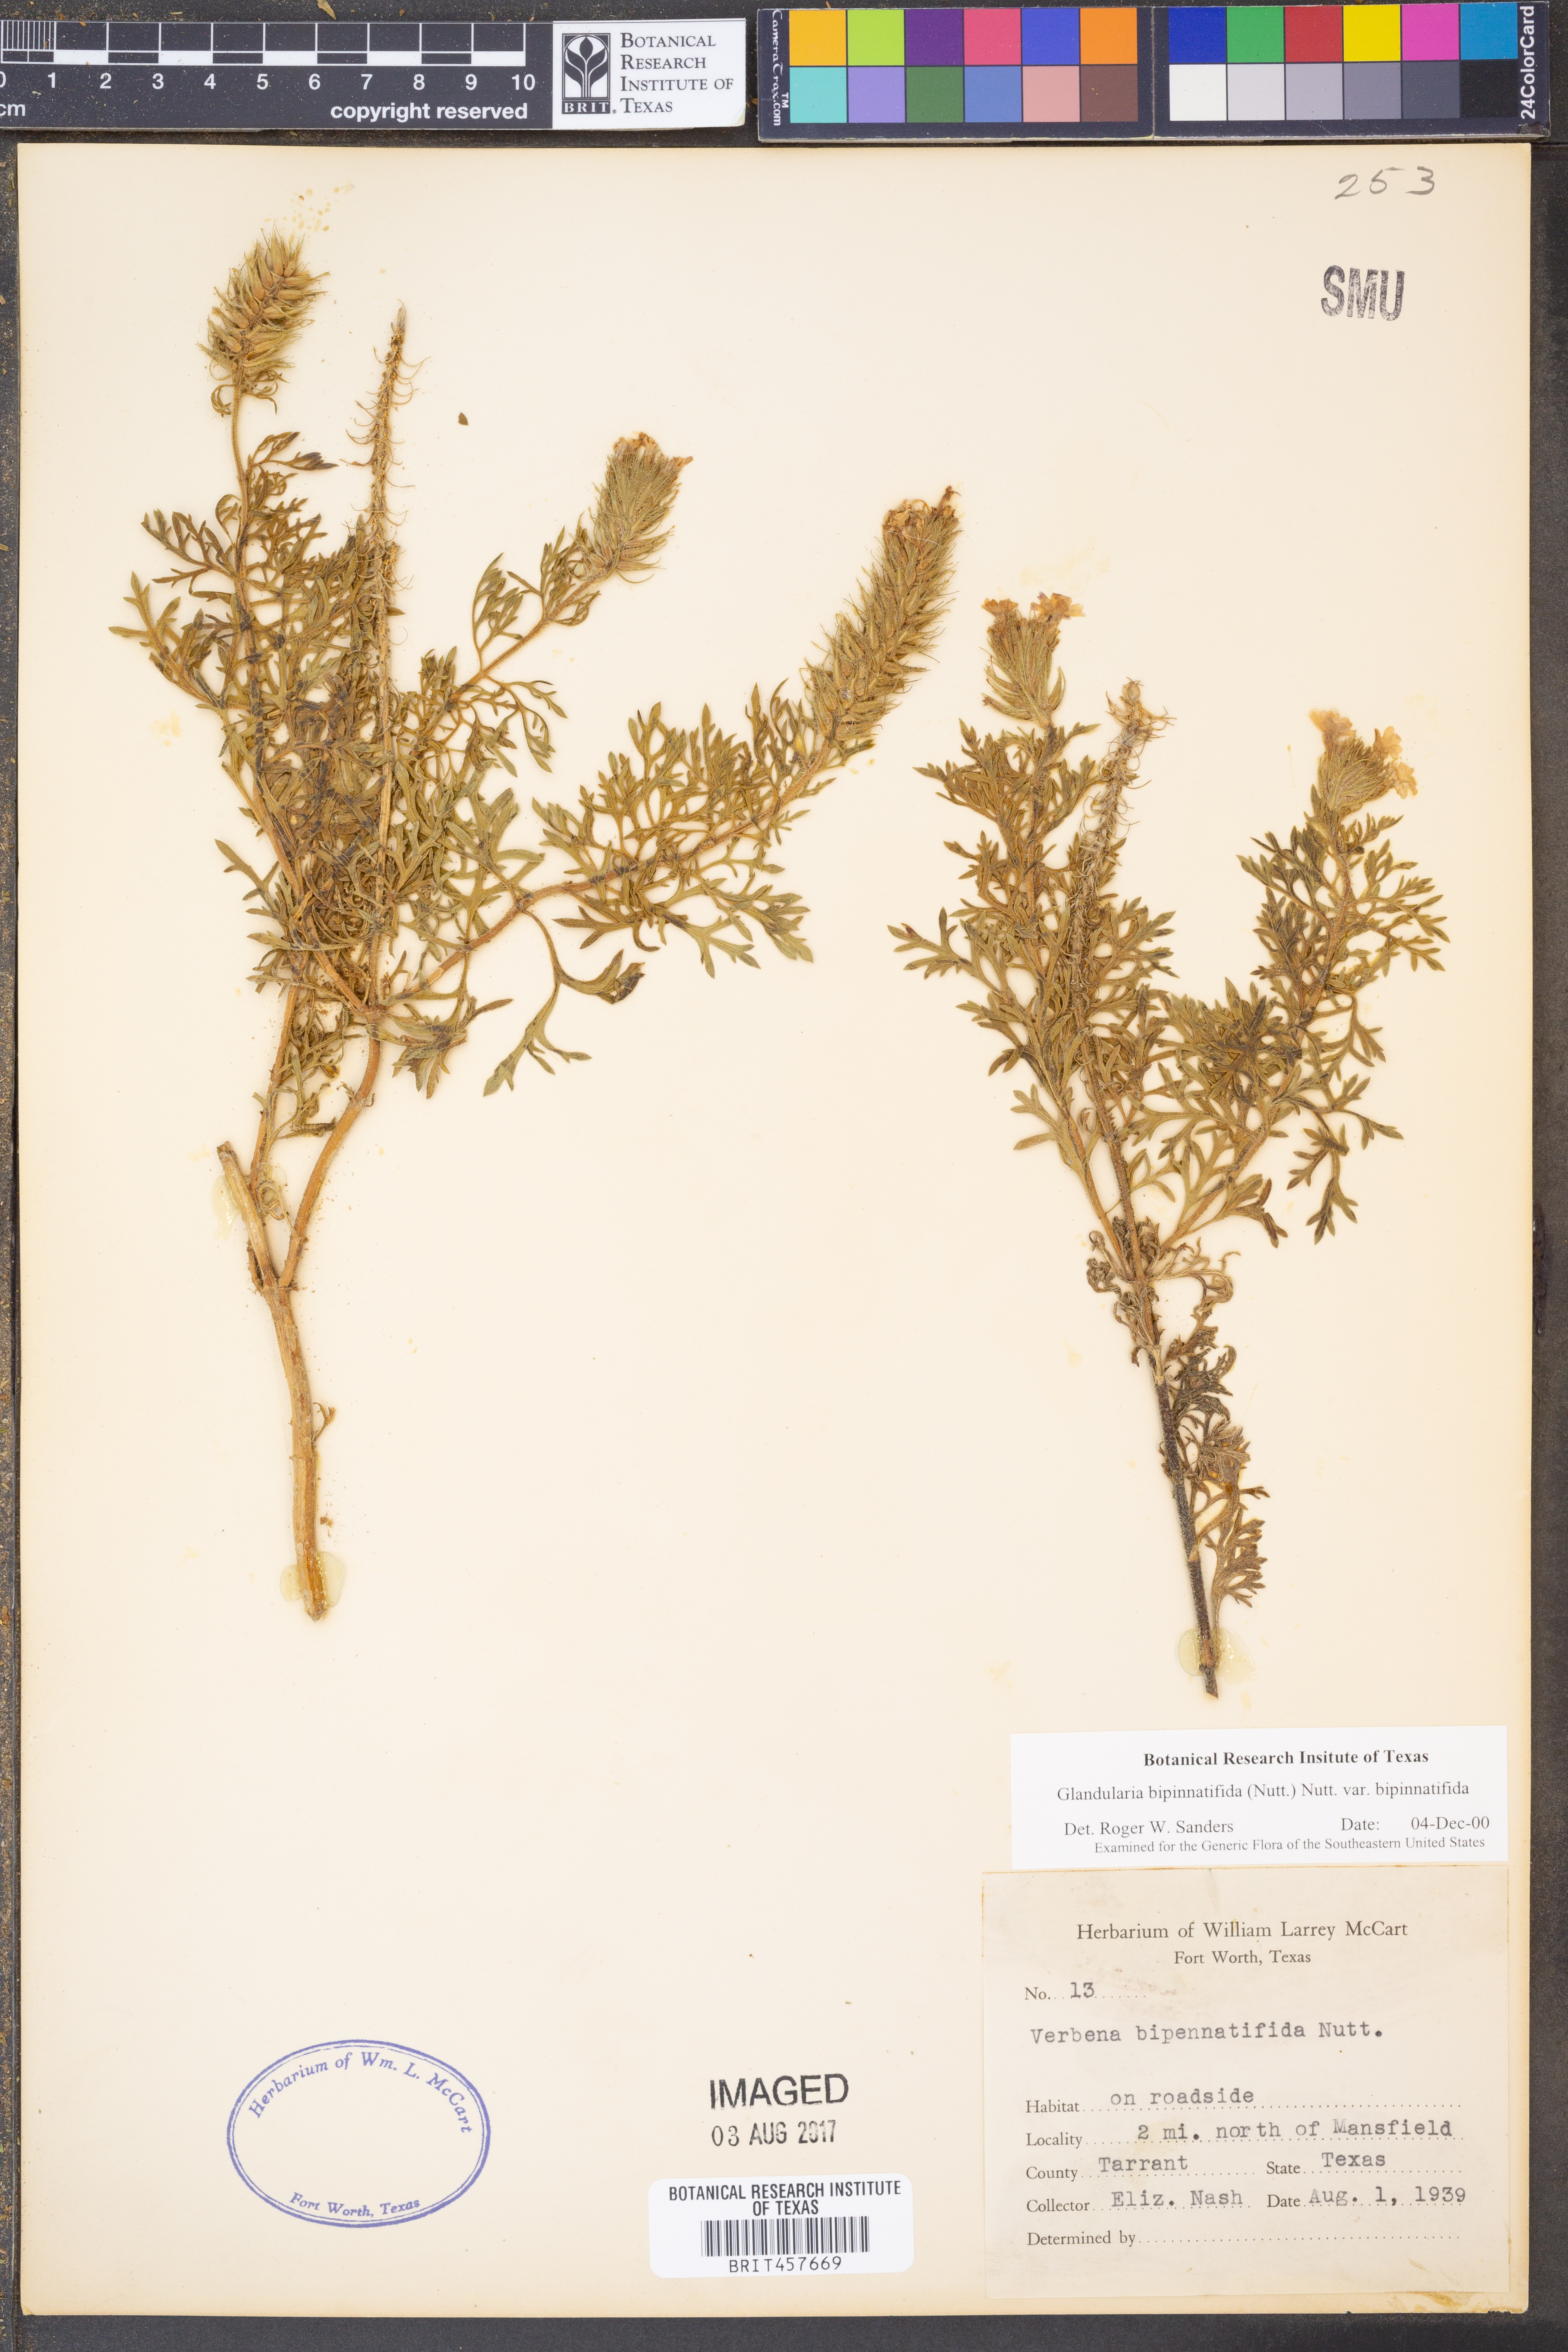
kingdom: Plantae
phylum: Tracheophyta
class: Magnoliopsida
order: Lamiales
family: Verbenaceae
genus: Verbena
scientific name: Verbena bipinnatifida
